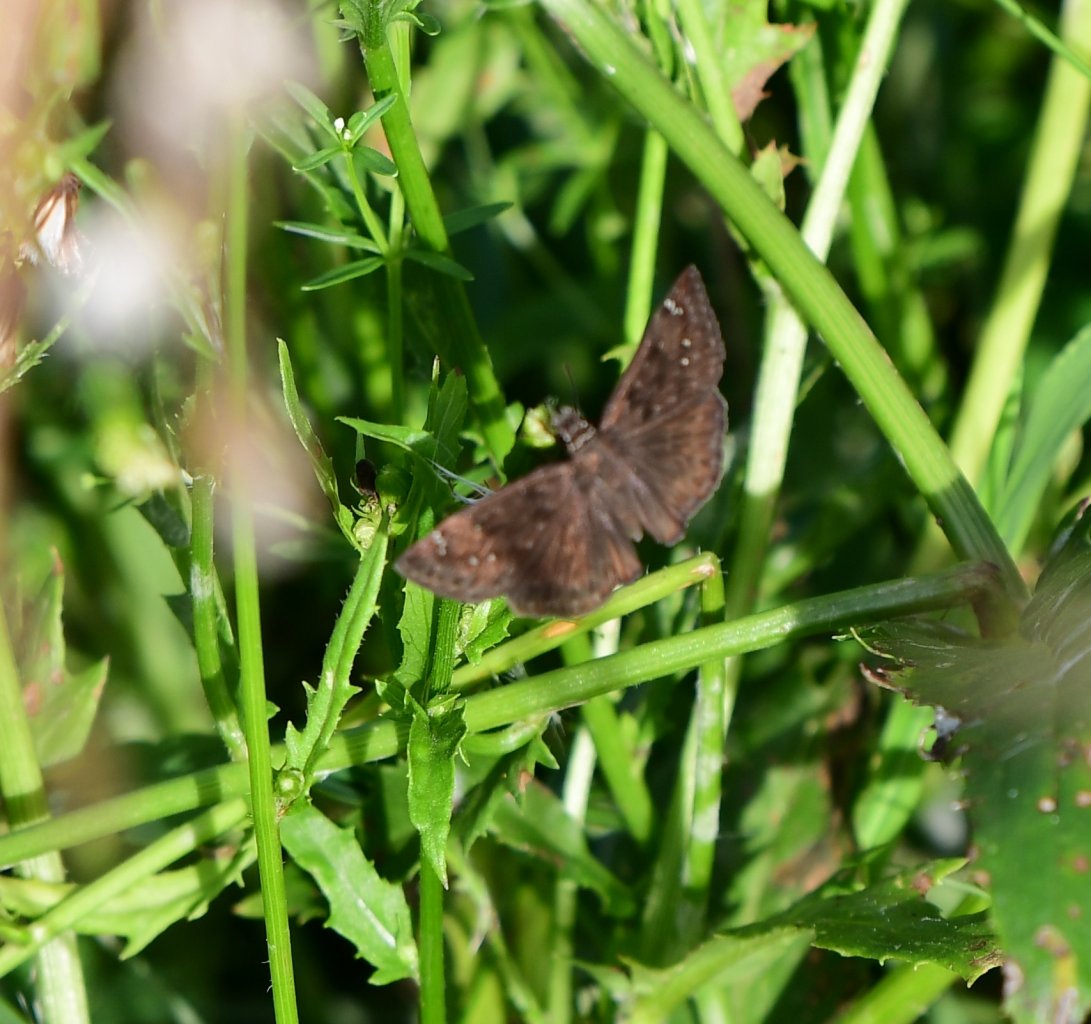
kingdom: Animalia
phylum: Arthropoda
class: Insecta
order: Lepidoptera
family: Hesperiidae
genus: Erynnis
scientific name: Erynnis zarucco
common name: Zarucco Duskywing
